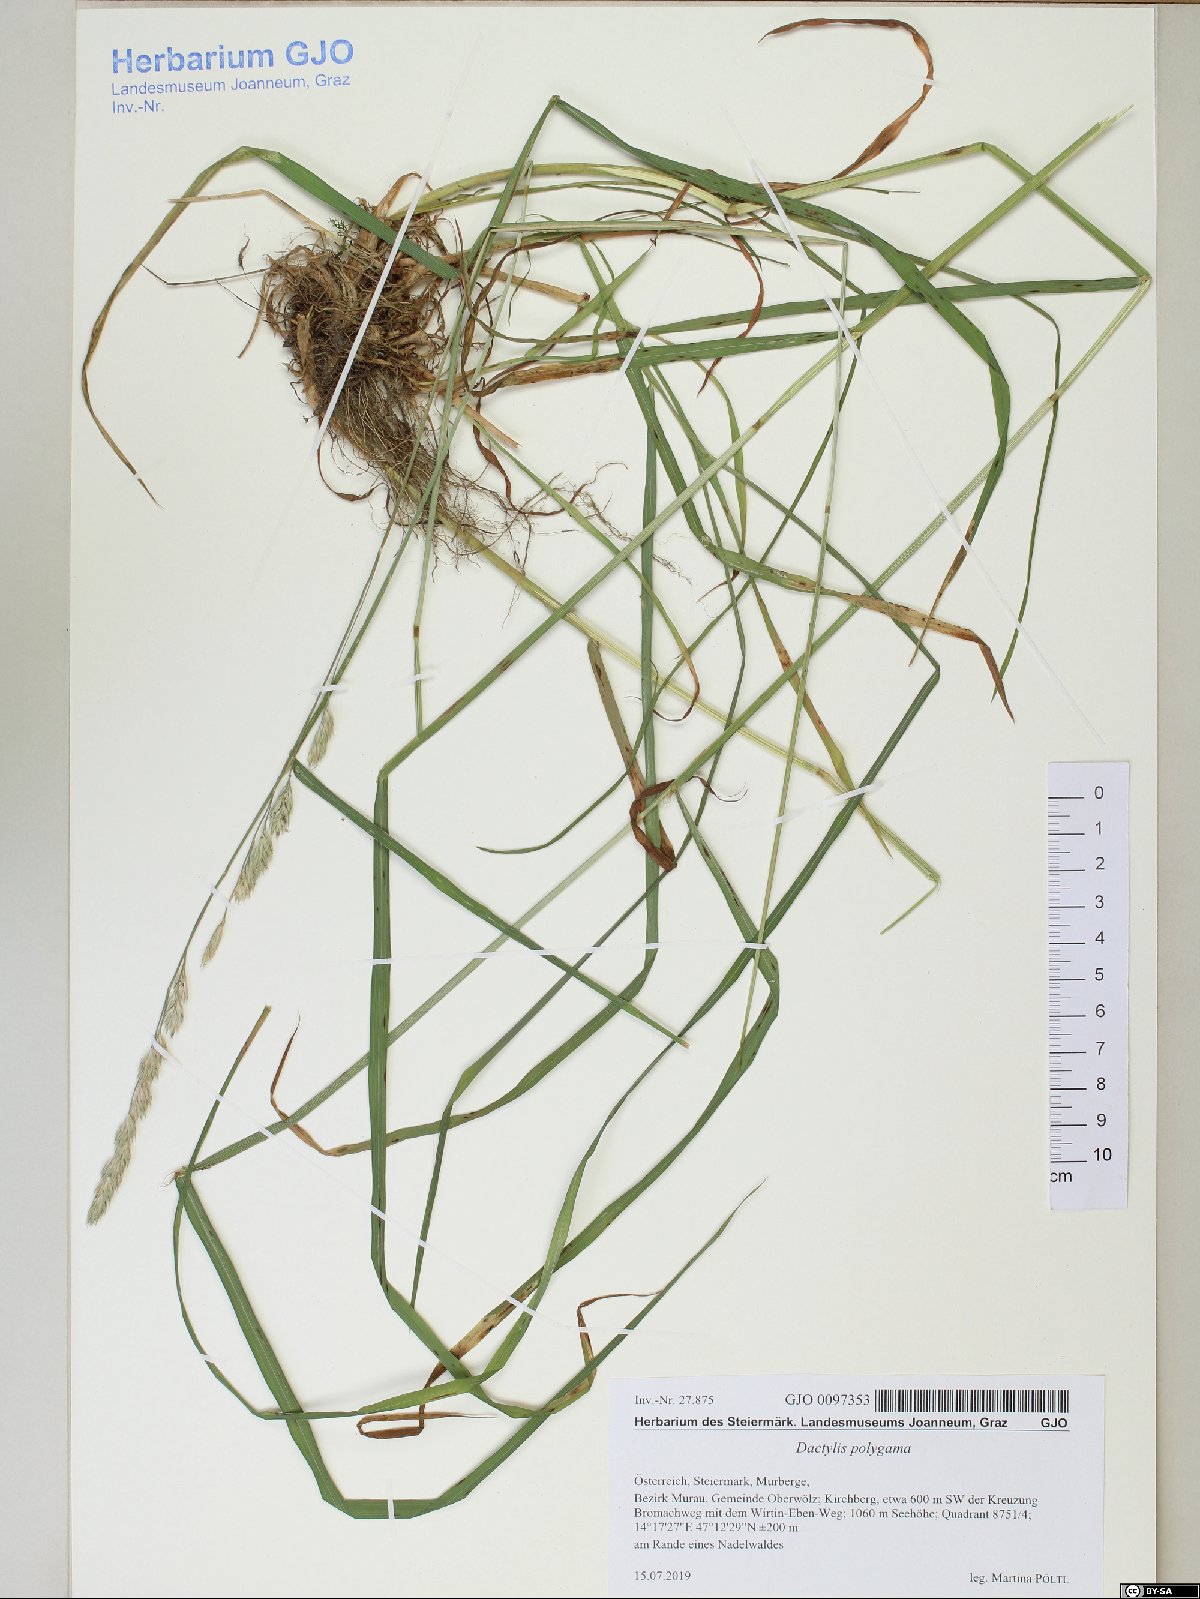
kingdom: Plantae
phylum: Tracheophyta
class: Liliopsida
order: Poales
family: Poaceae
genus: Dactylis
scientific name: Dactylis glomerata
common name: Orchardgrass
